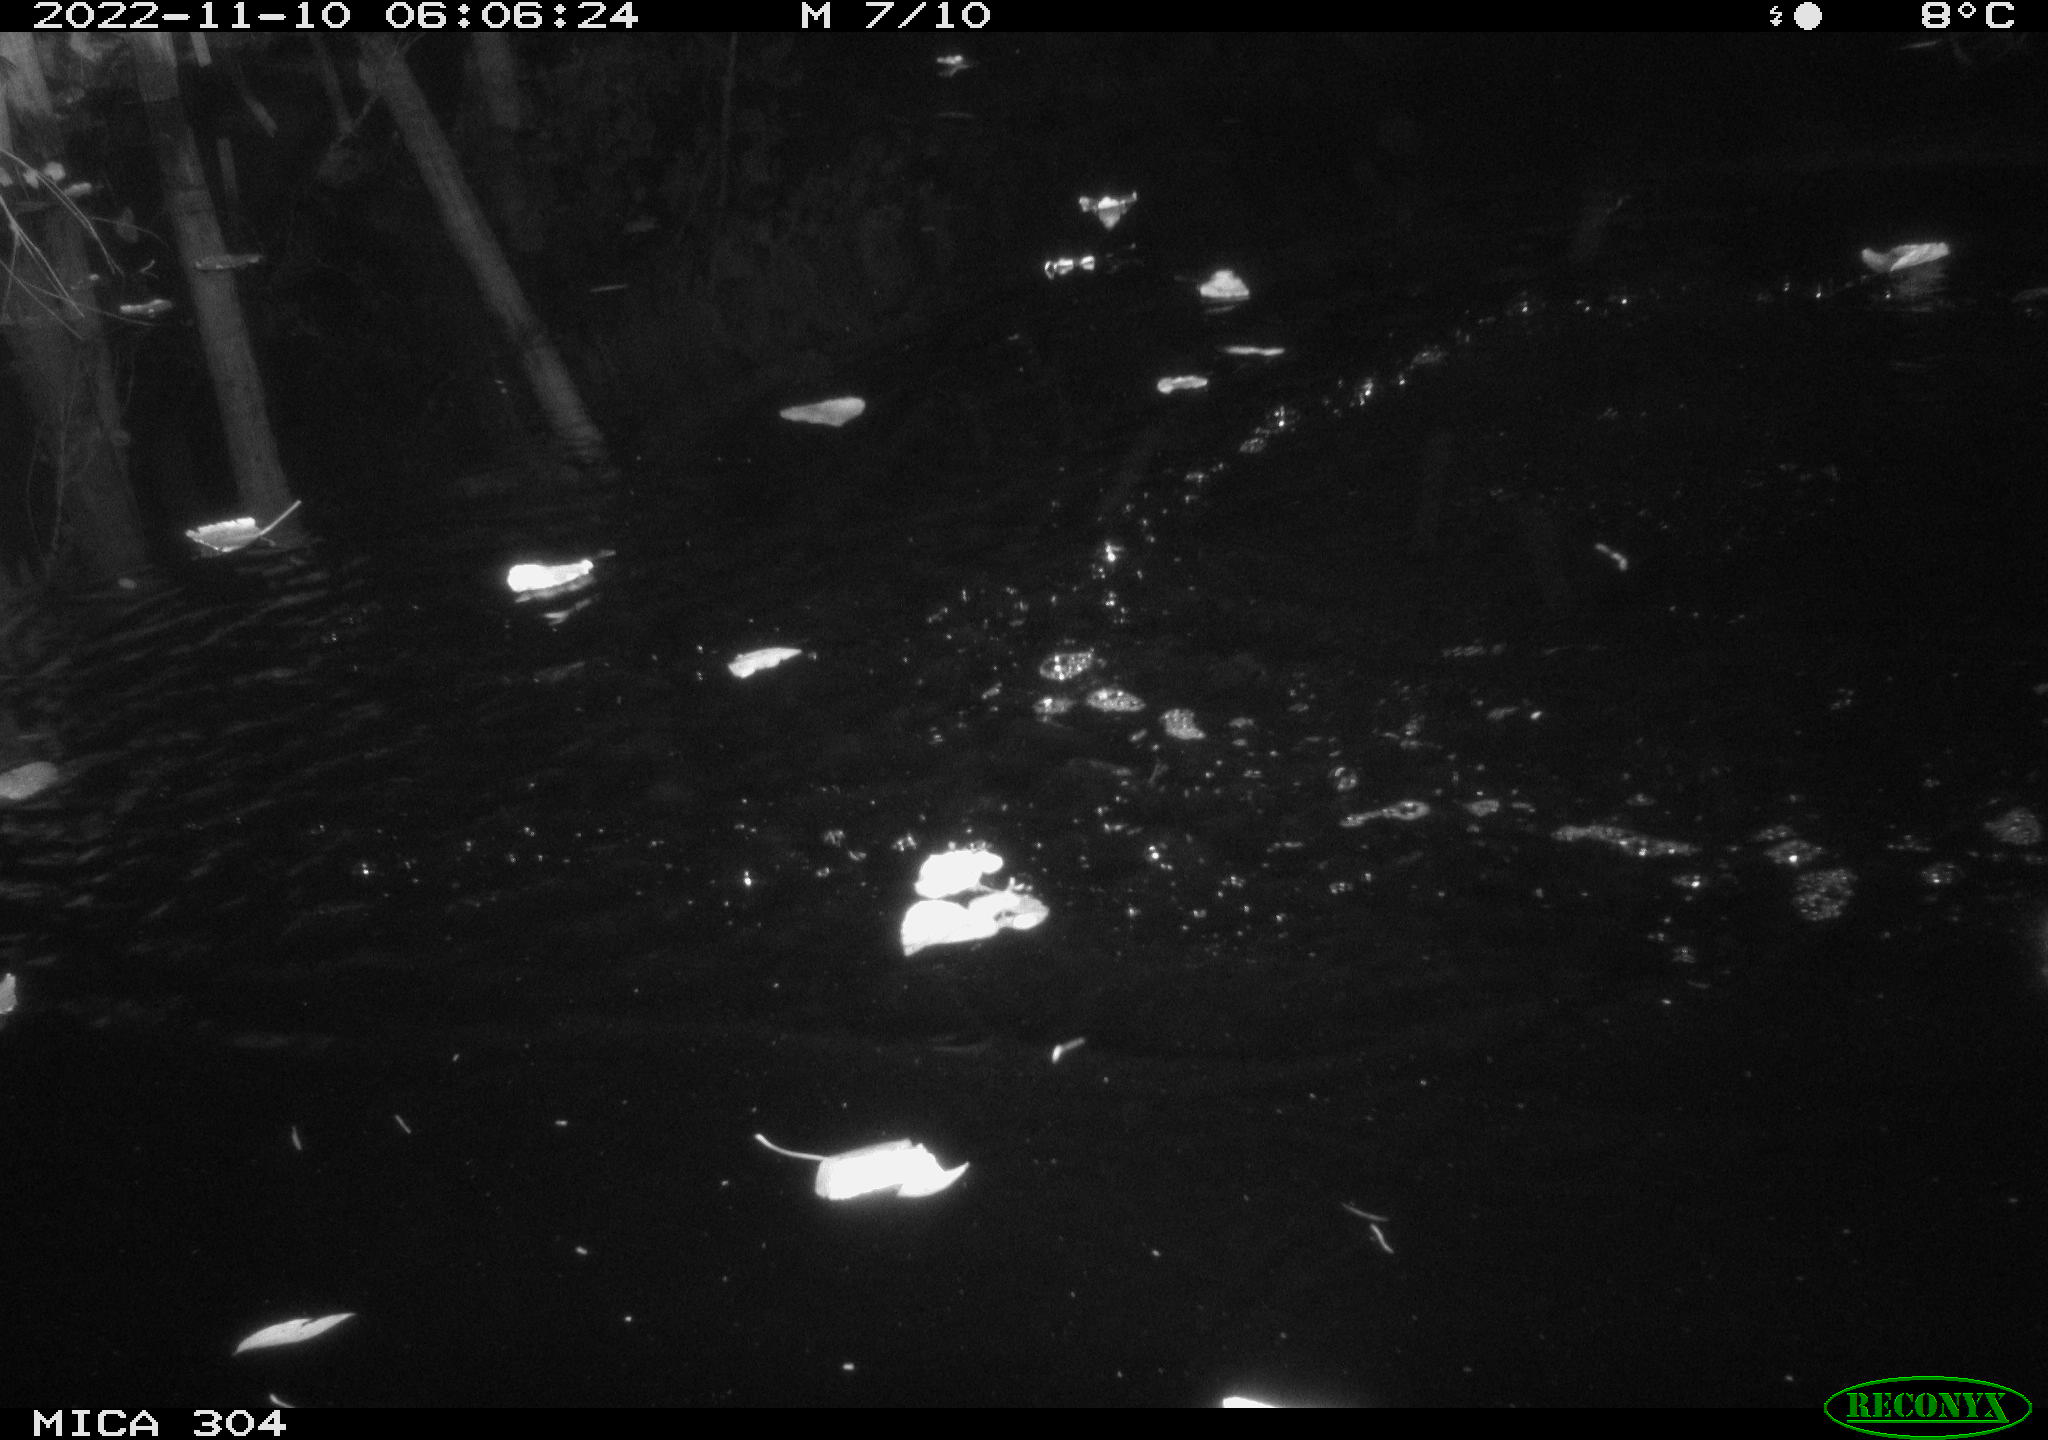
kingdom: Animalia
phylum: Chordata
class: Aves
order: Anseriformes
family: Anatidae
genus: Anas
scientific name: Anas
